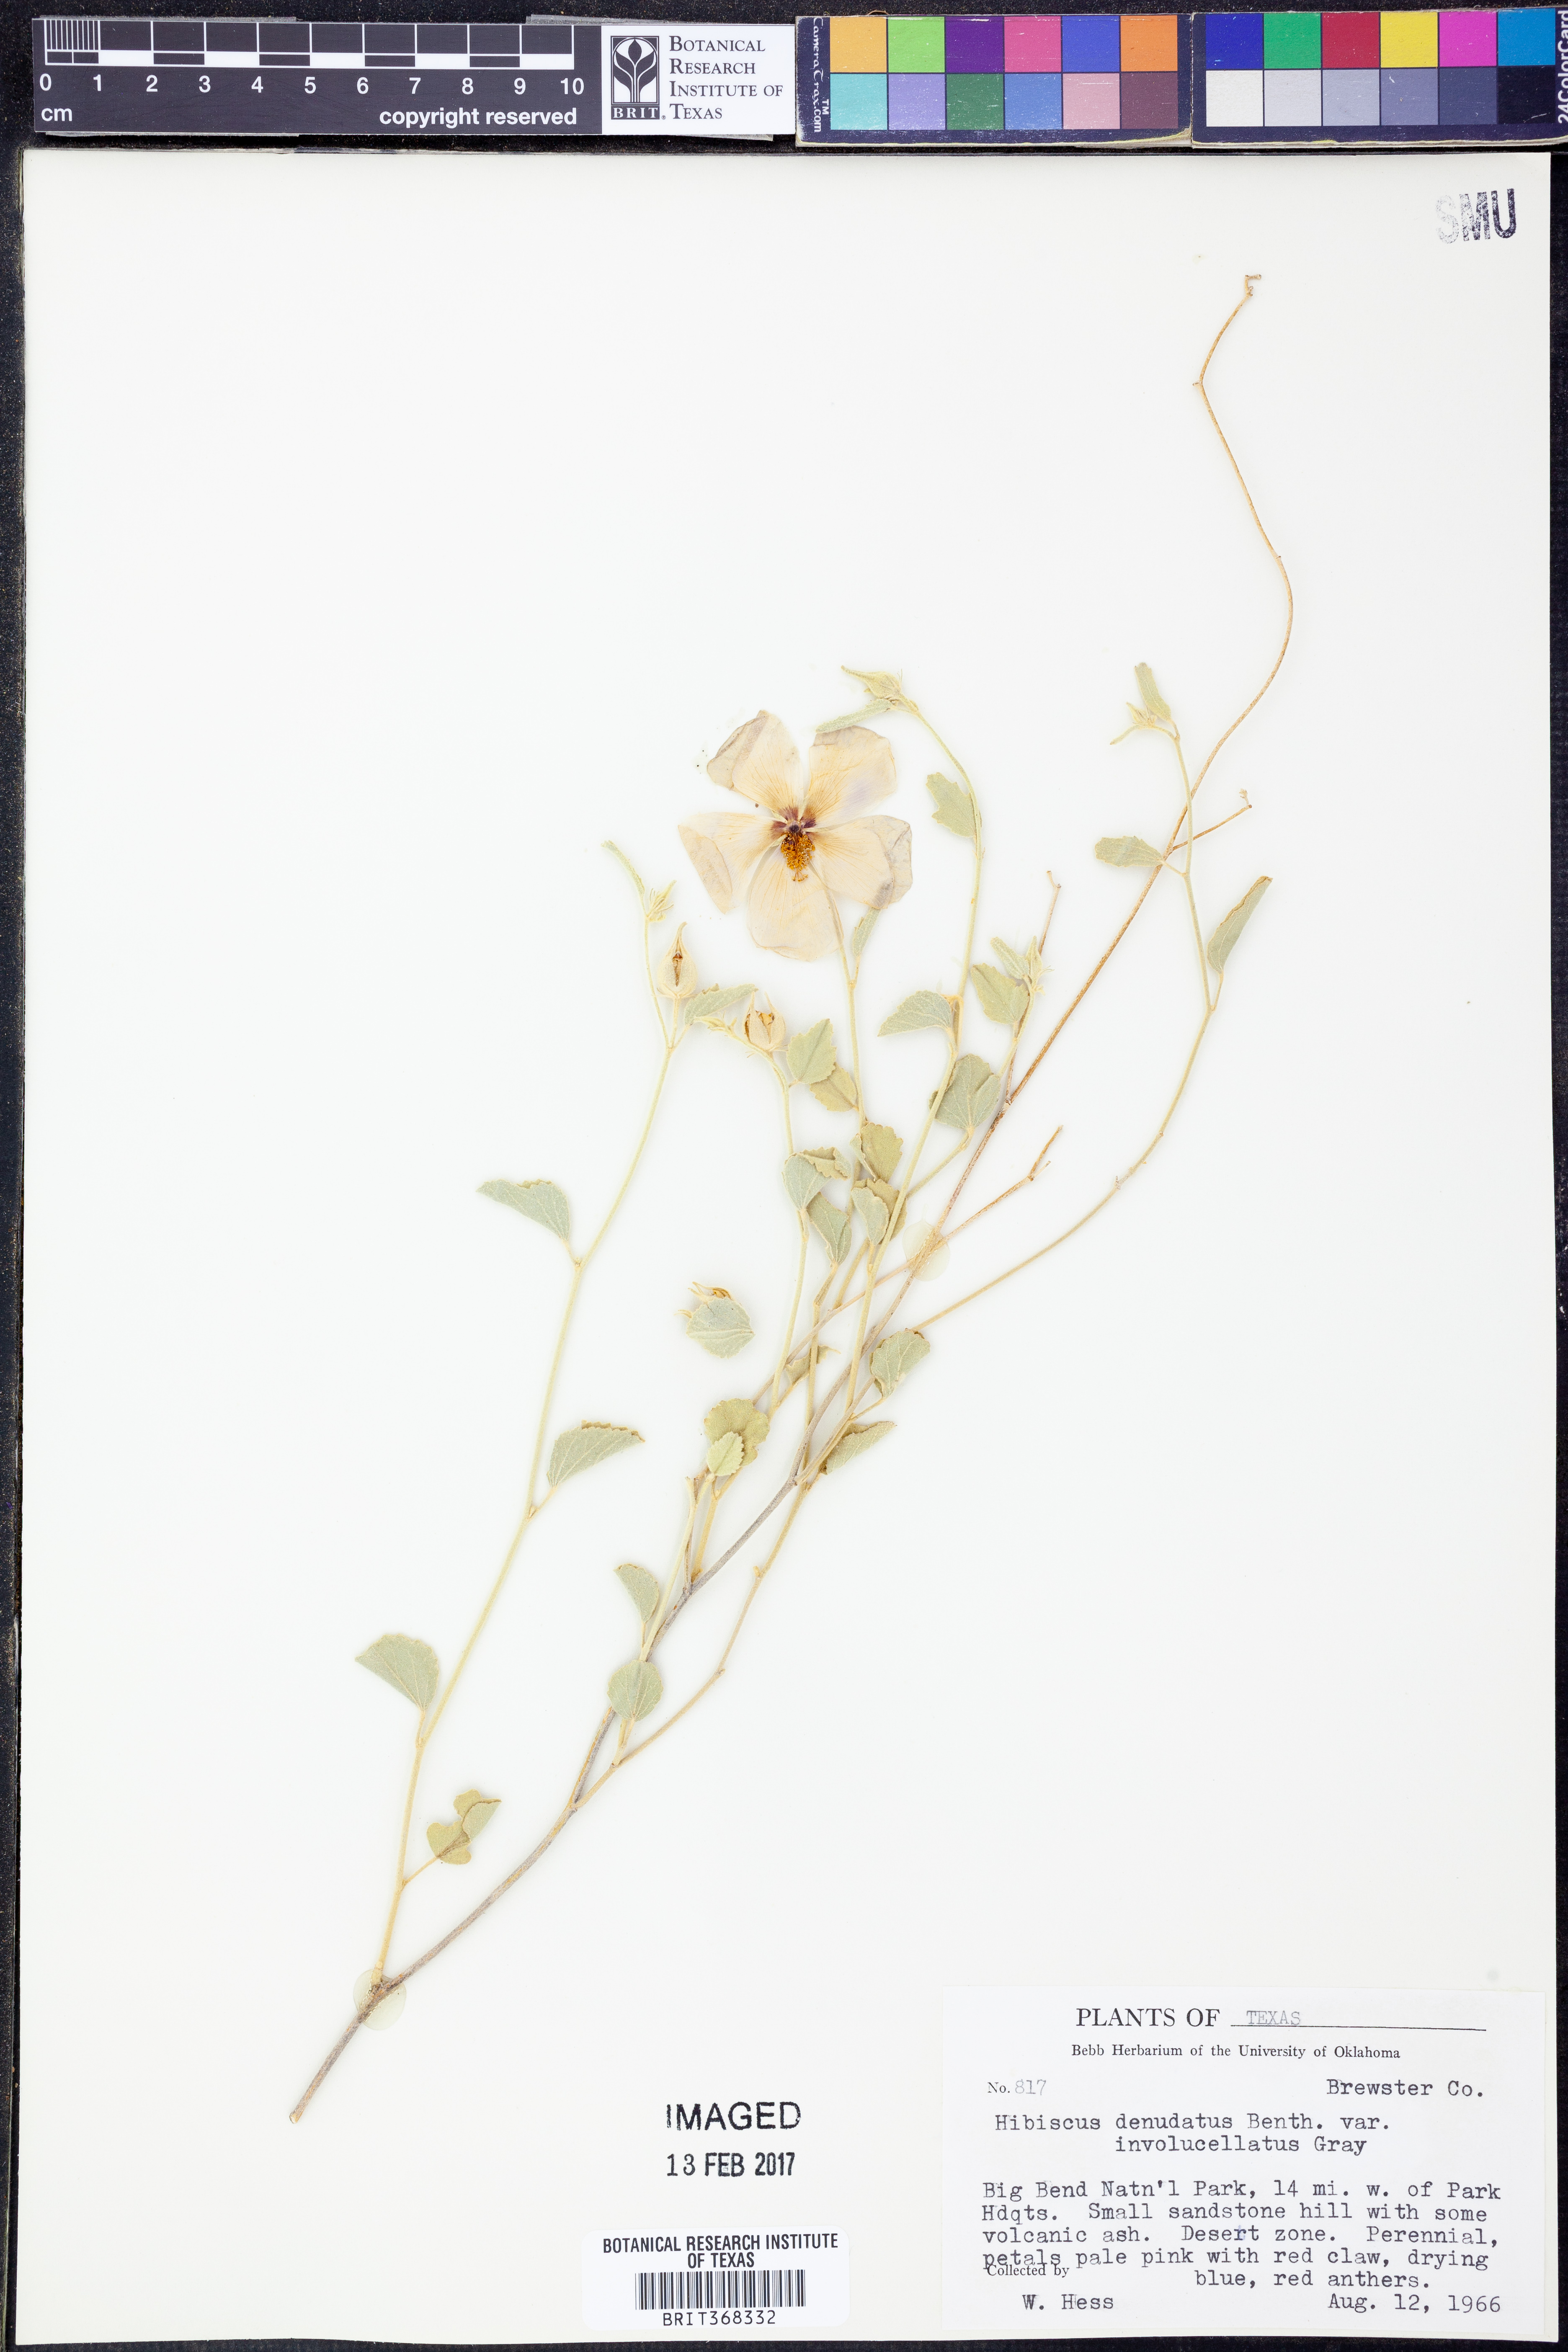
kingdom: Plantae
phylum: Tracheophyta
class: Magnoliopsida
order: Malvales
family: Malvaceae
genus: Hibiscus
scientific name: Hibiscus denudatus
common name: Paleface
